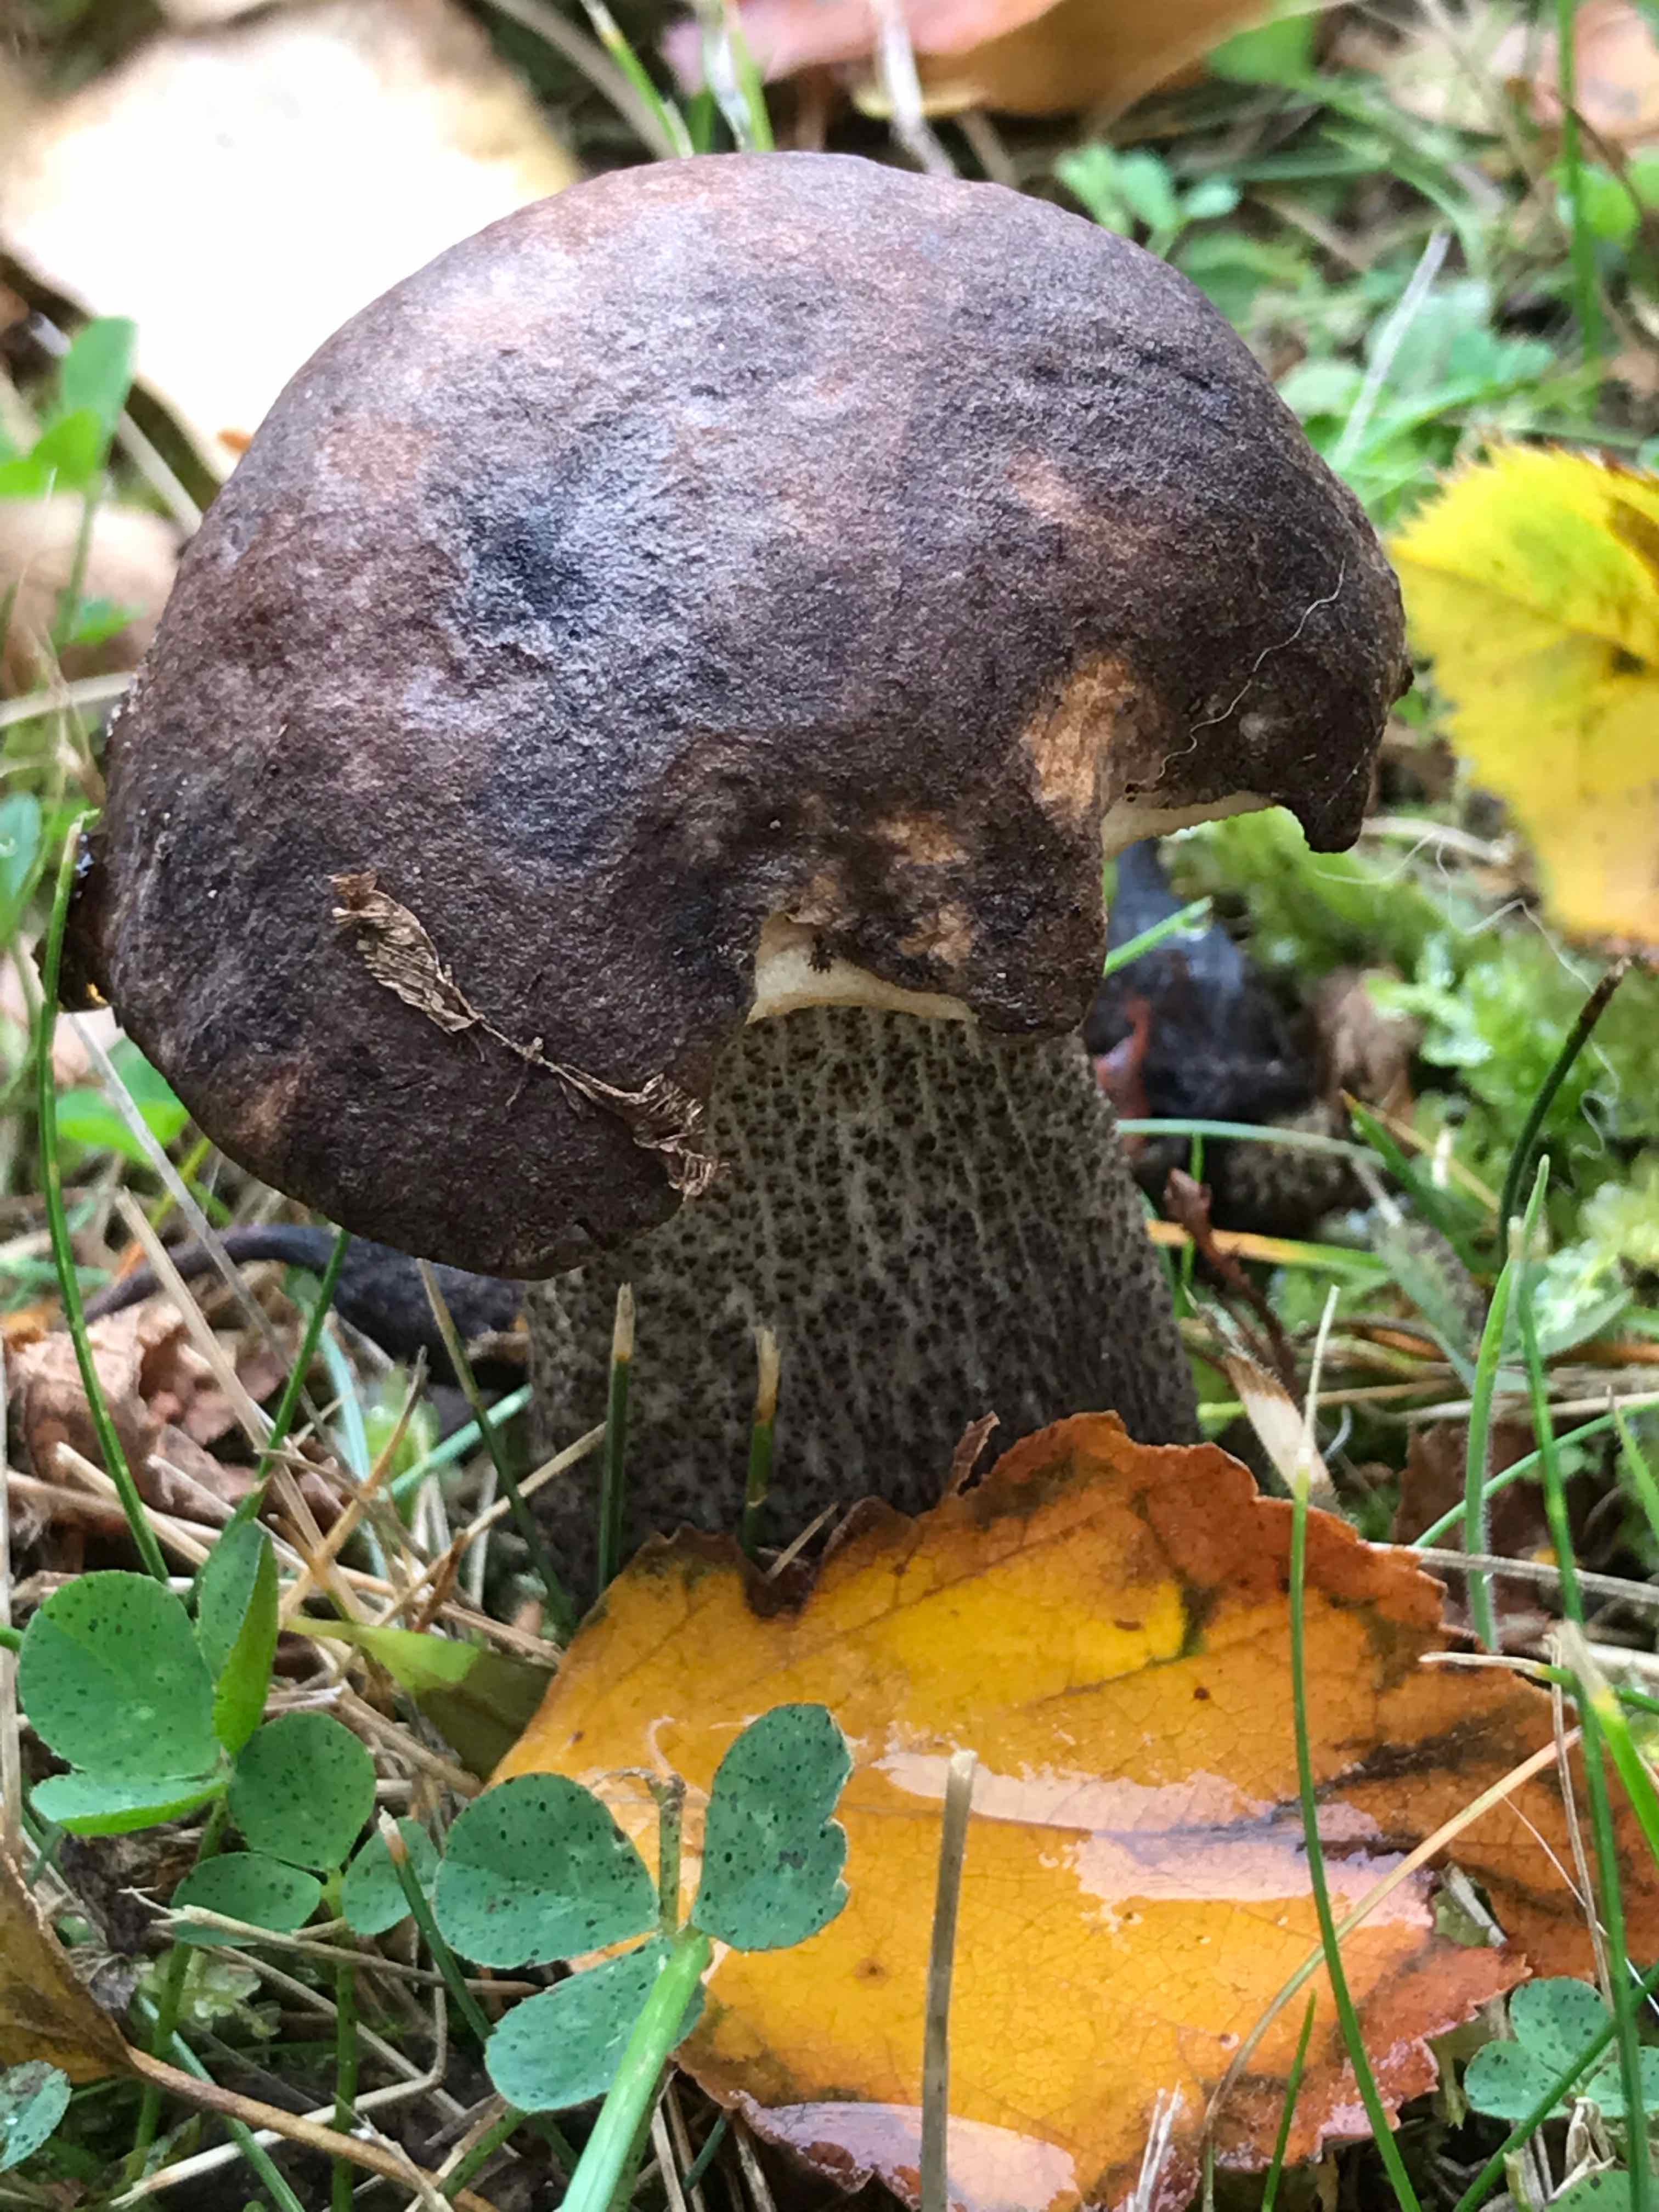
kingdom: Fungi
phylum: Basidiomycota
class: Agaricomycetes
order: Boletales
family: Boletaceae
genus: Leccinum
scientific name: Leccinum melaneum
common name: mørk skælrørhat
